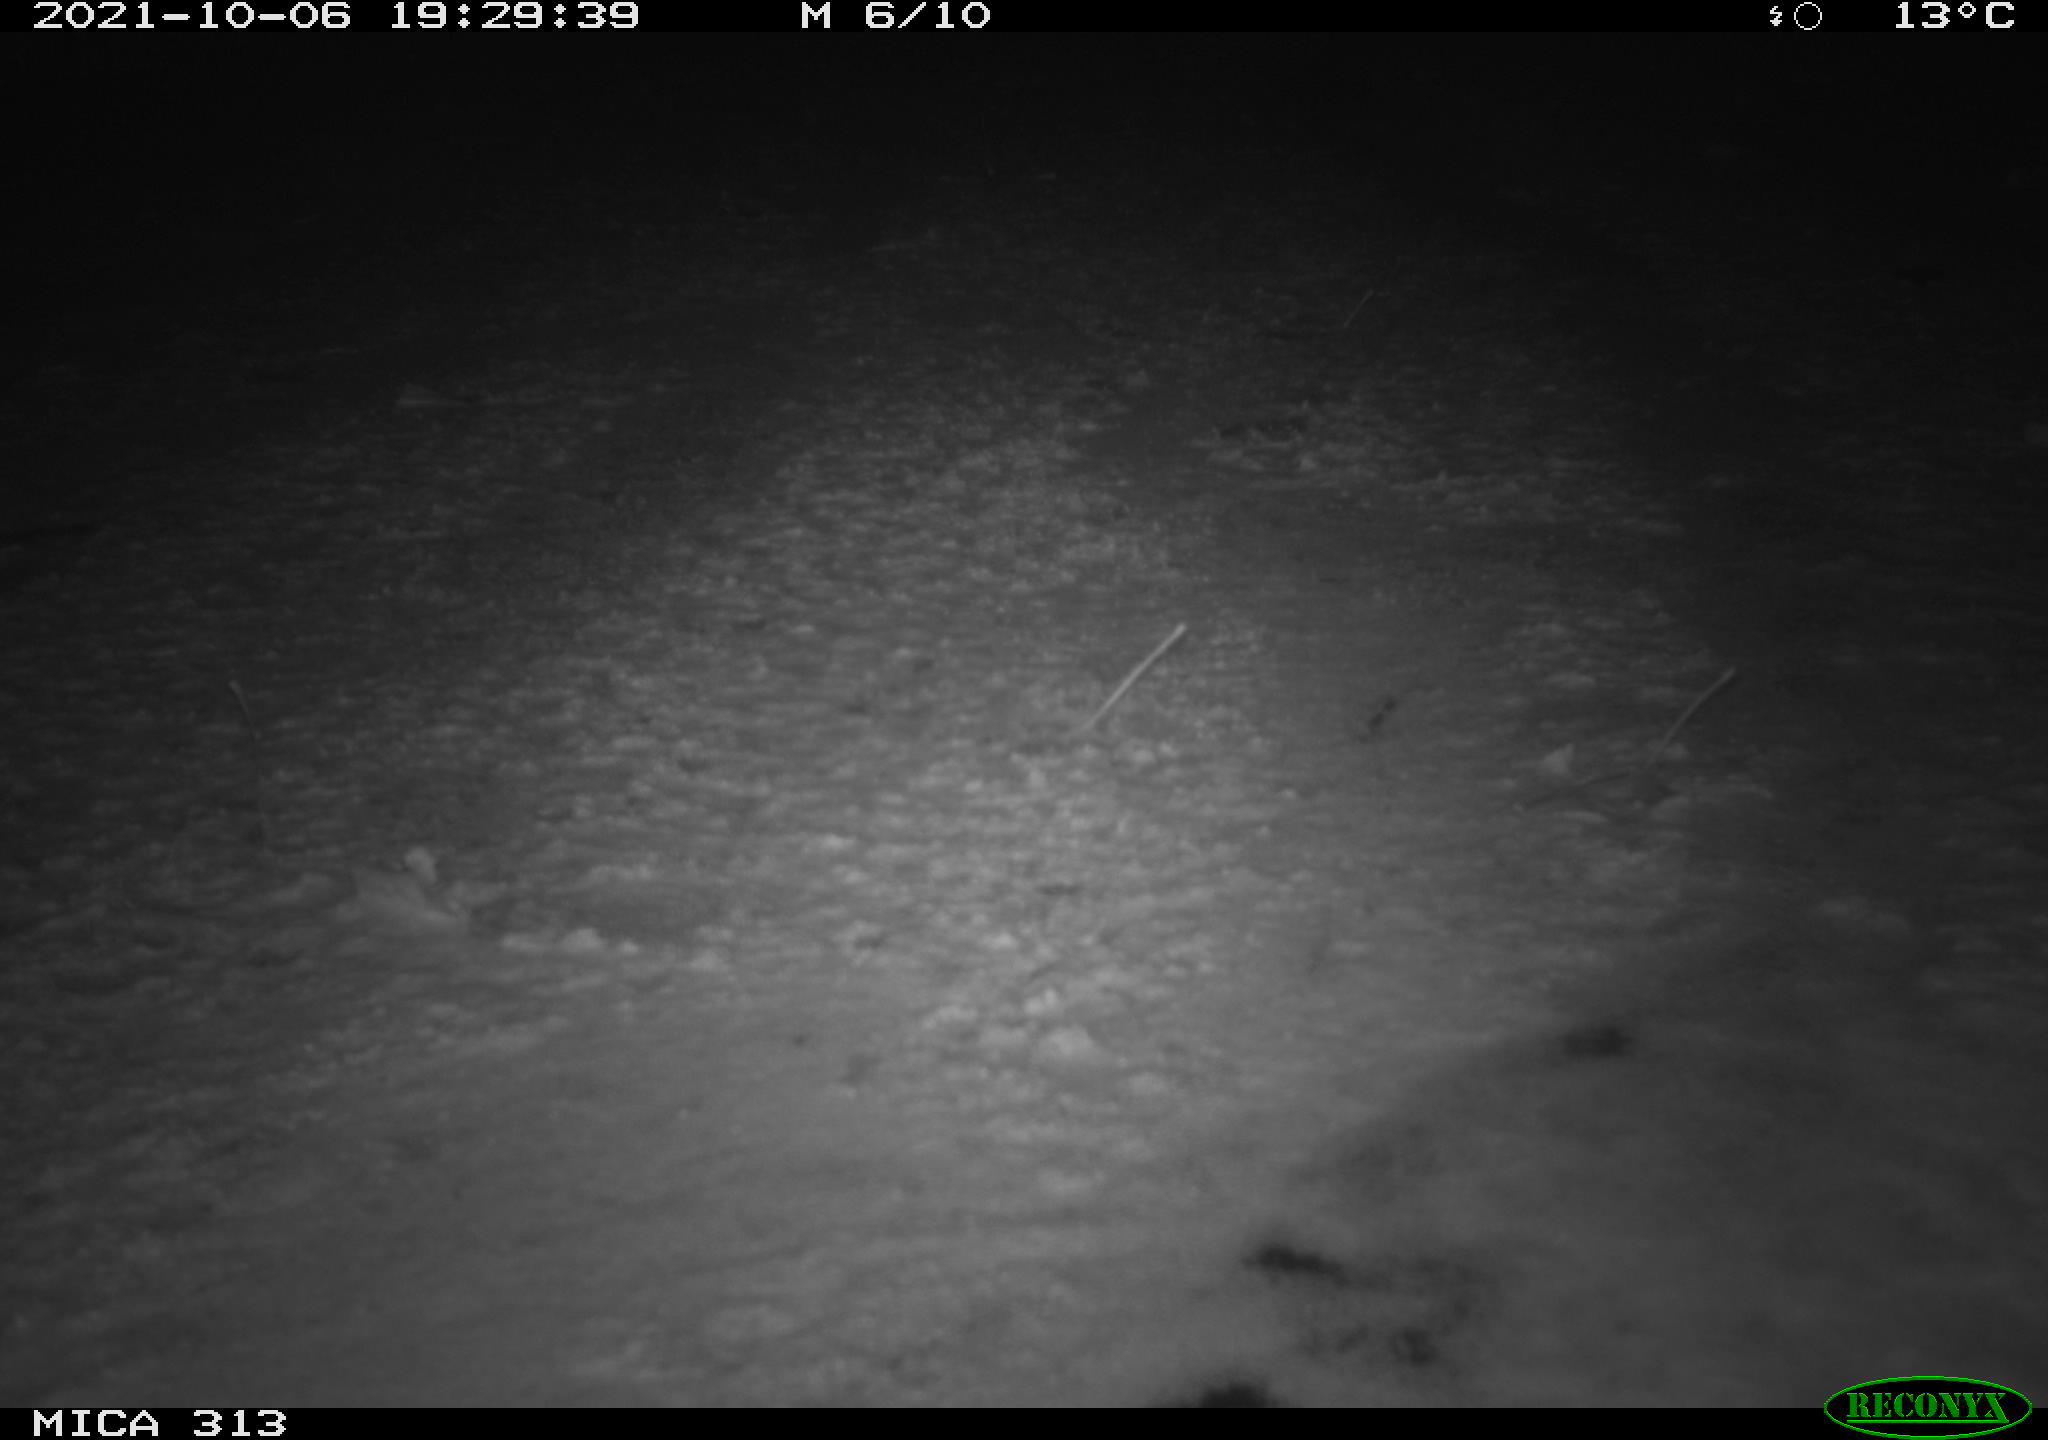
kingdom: Animalia
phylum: Chordata
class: Aves
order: Gruiformes
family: Rallidae
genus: Gallinula
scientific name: Gallinula chloropus
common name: Common moorhen
